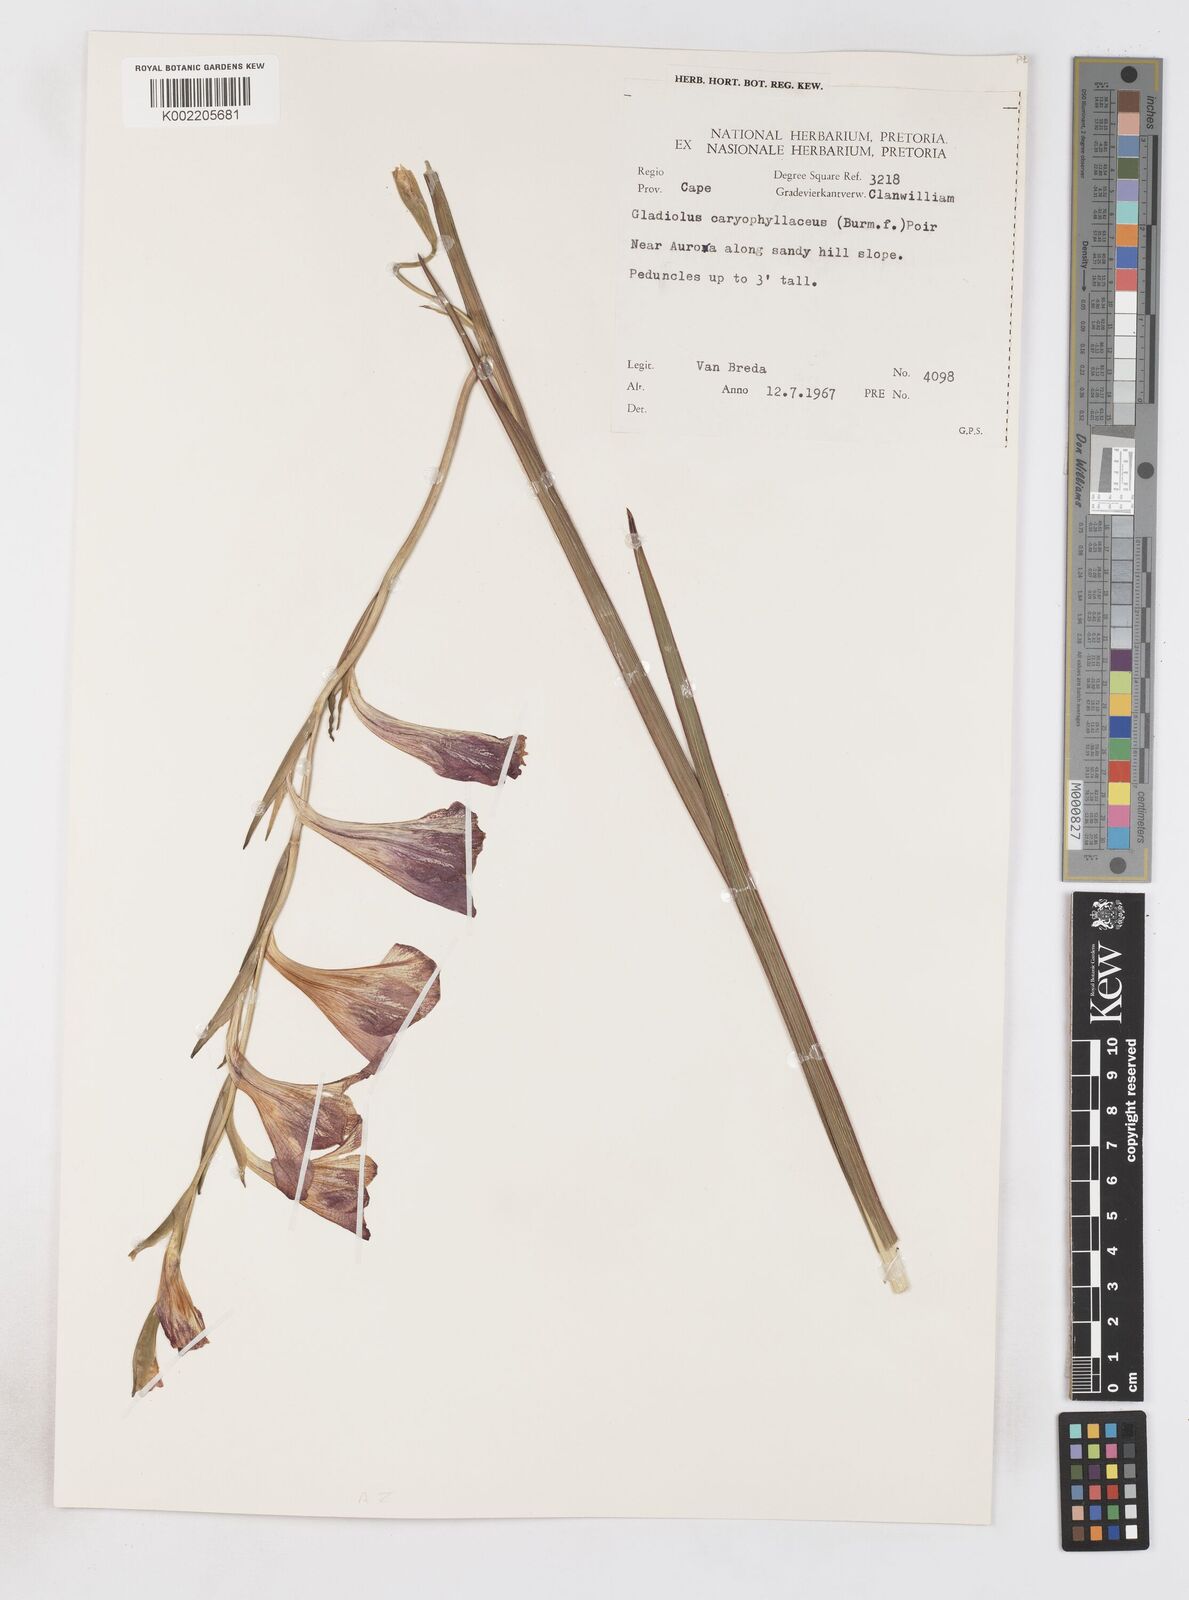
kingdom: Plantae
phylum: Tracheophyta
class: Liliopsida
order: Asparagales
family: Iridaceae
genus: Gladiolus
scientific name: Gladiolus caryophyllaceus
